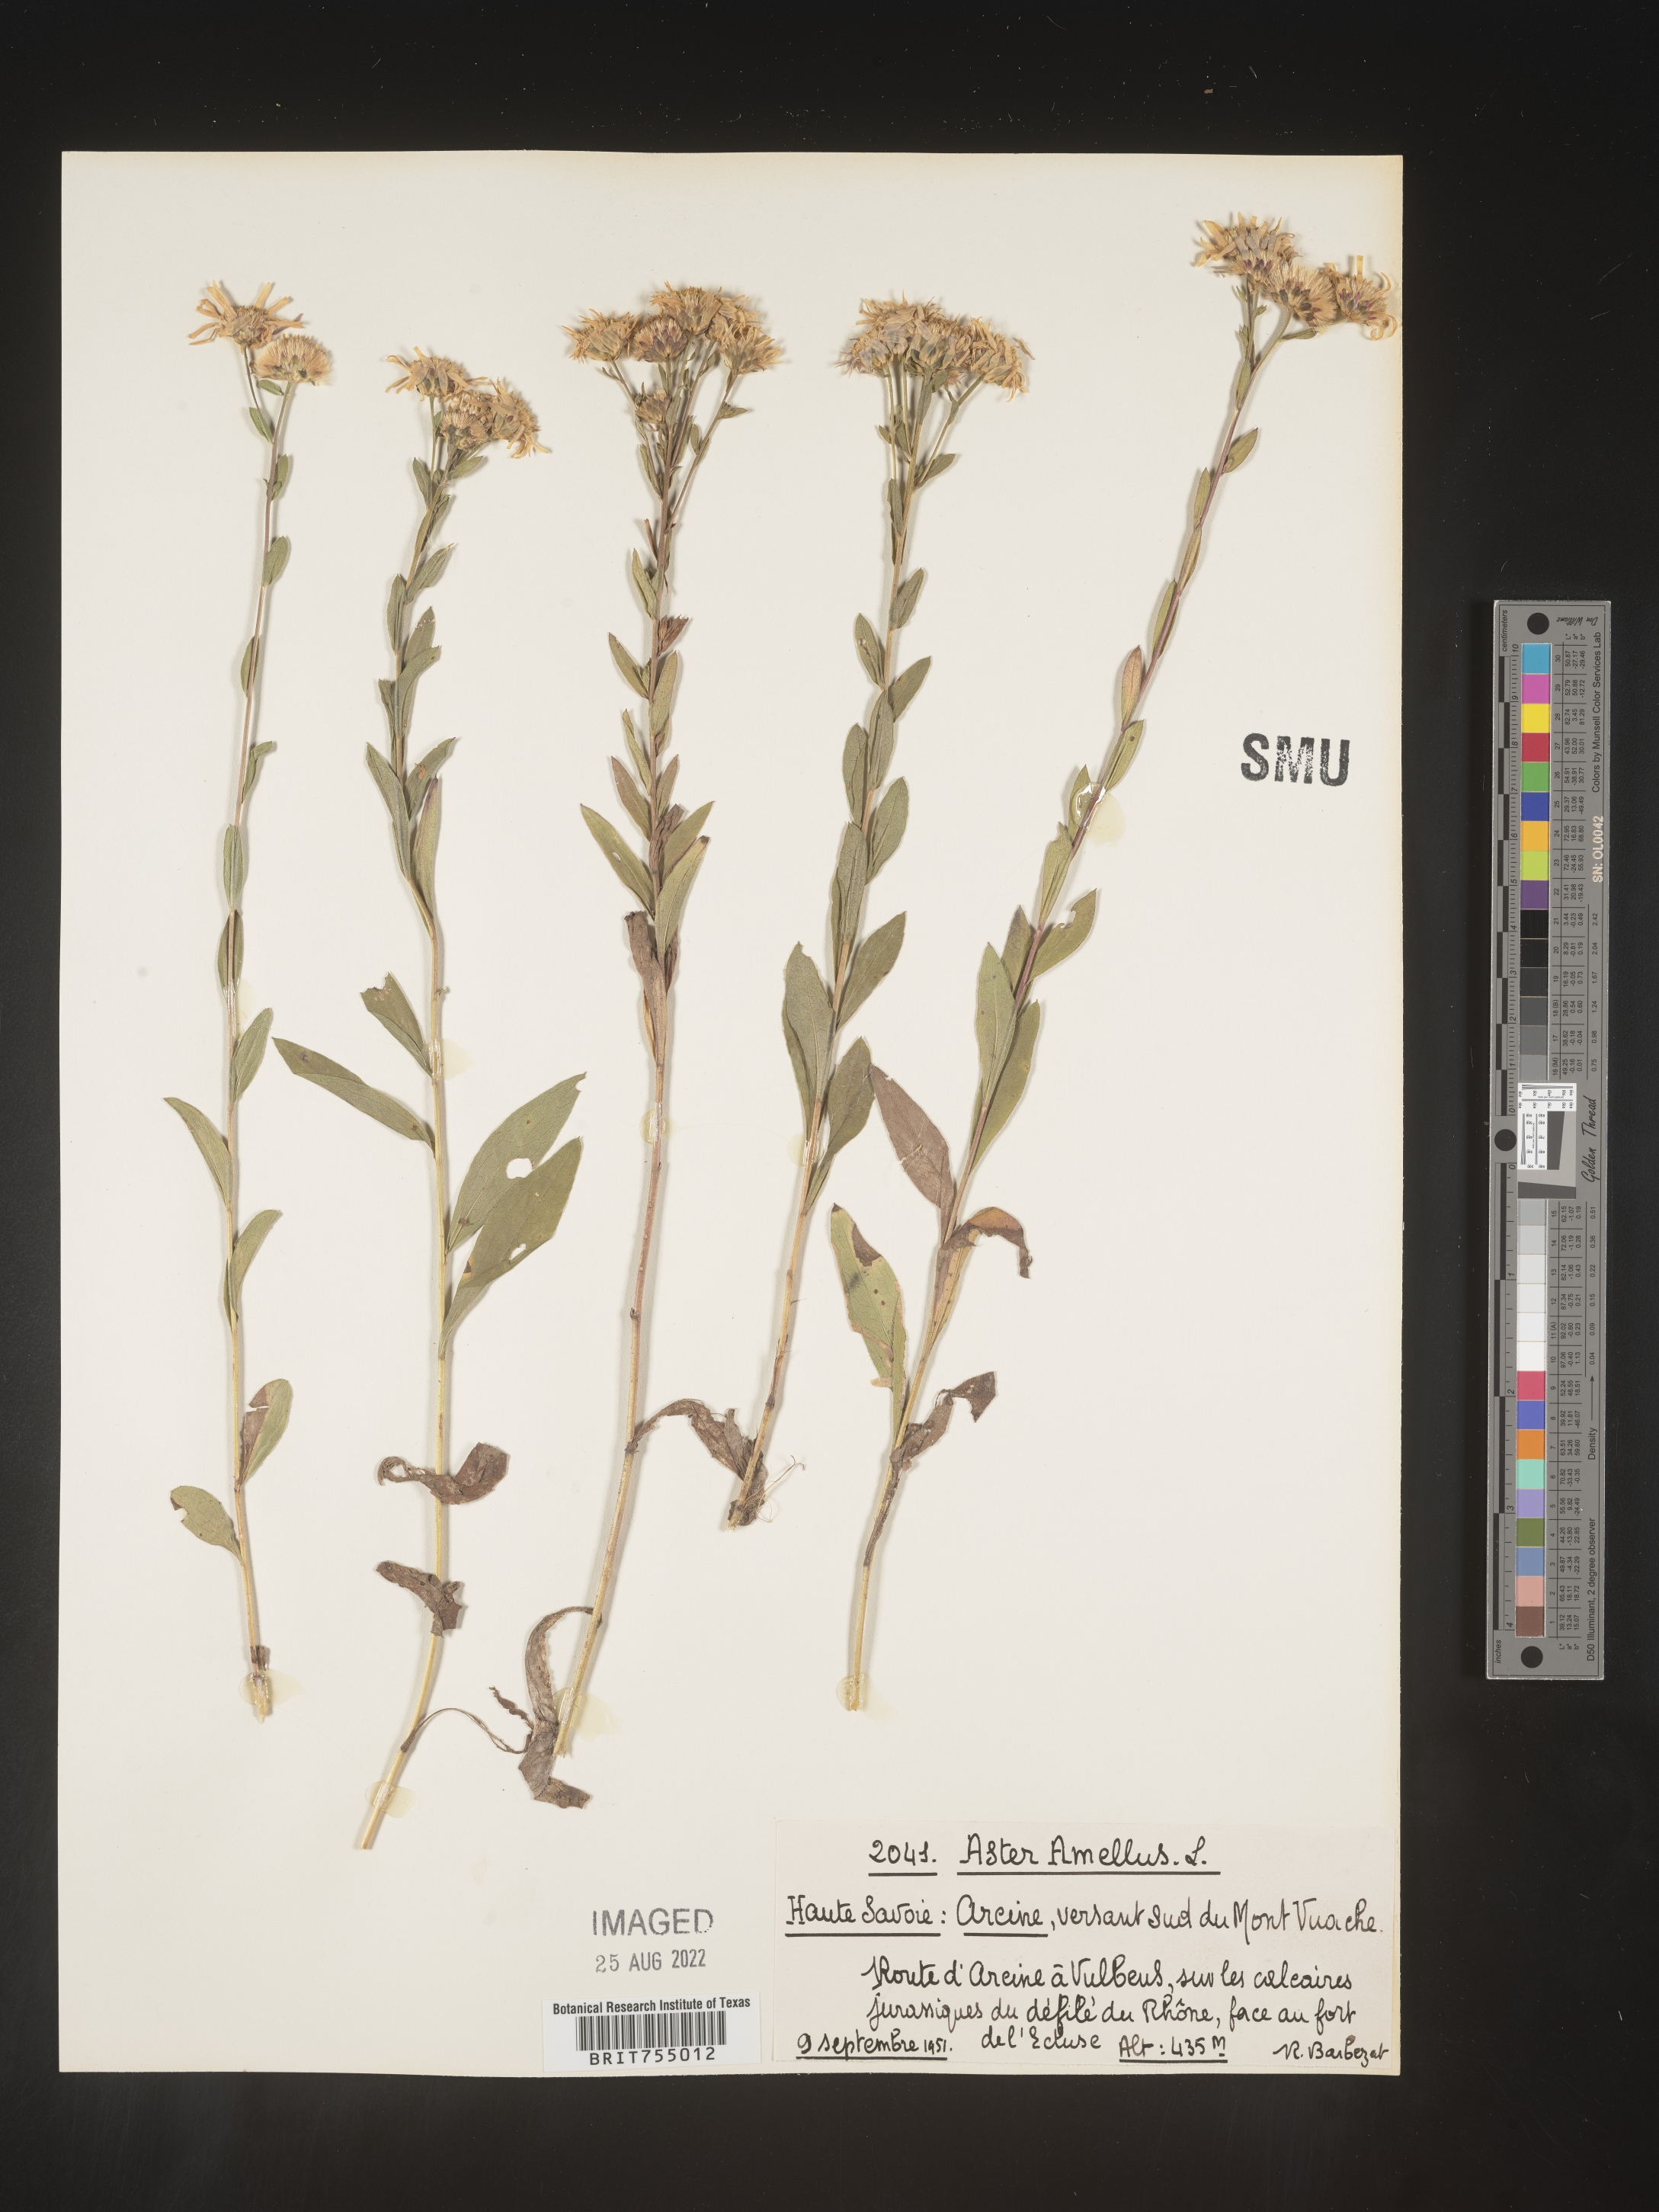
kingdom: Plantae
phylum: Tracheophyta
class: Magnoliopsida
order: Asterales
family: Asteraceae
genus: Symphyotrichum
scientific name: Symphyotrichum
